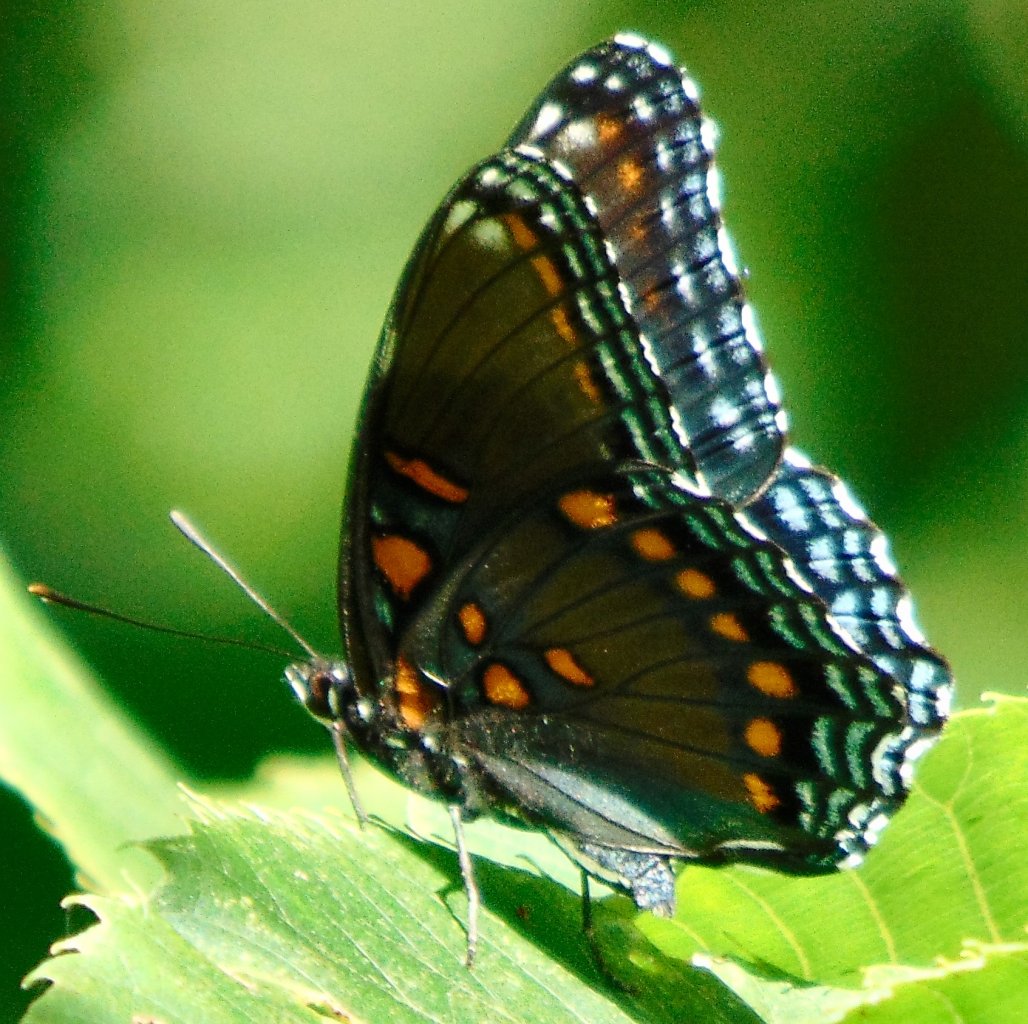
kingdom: Animalia
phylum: Arthropoda
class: Insecta
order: Lepidoptera
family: Nymphalidae
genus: Limenitis
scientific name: Limenitis astyanax
